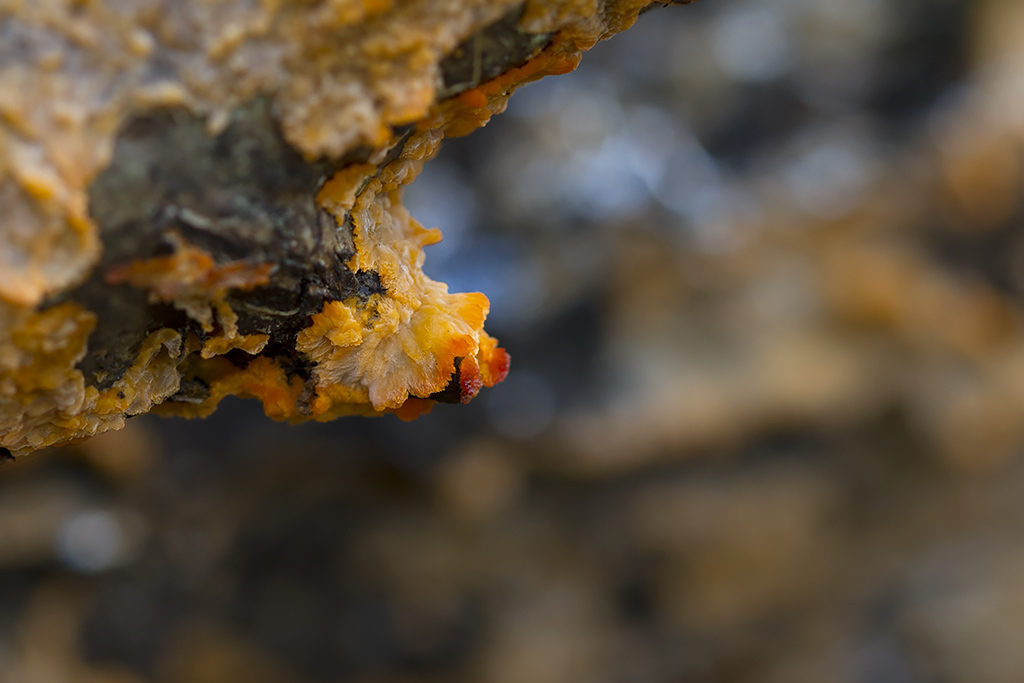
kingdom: Fungi
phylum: Basidiomycota
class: Agaricomycetes
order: Polyporales
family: Meruliaceae
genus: Phlebia
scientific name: Phlebia radiata
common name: stråle-åresvamp
